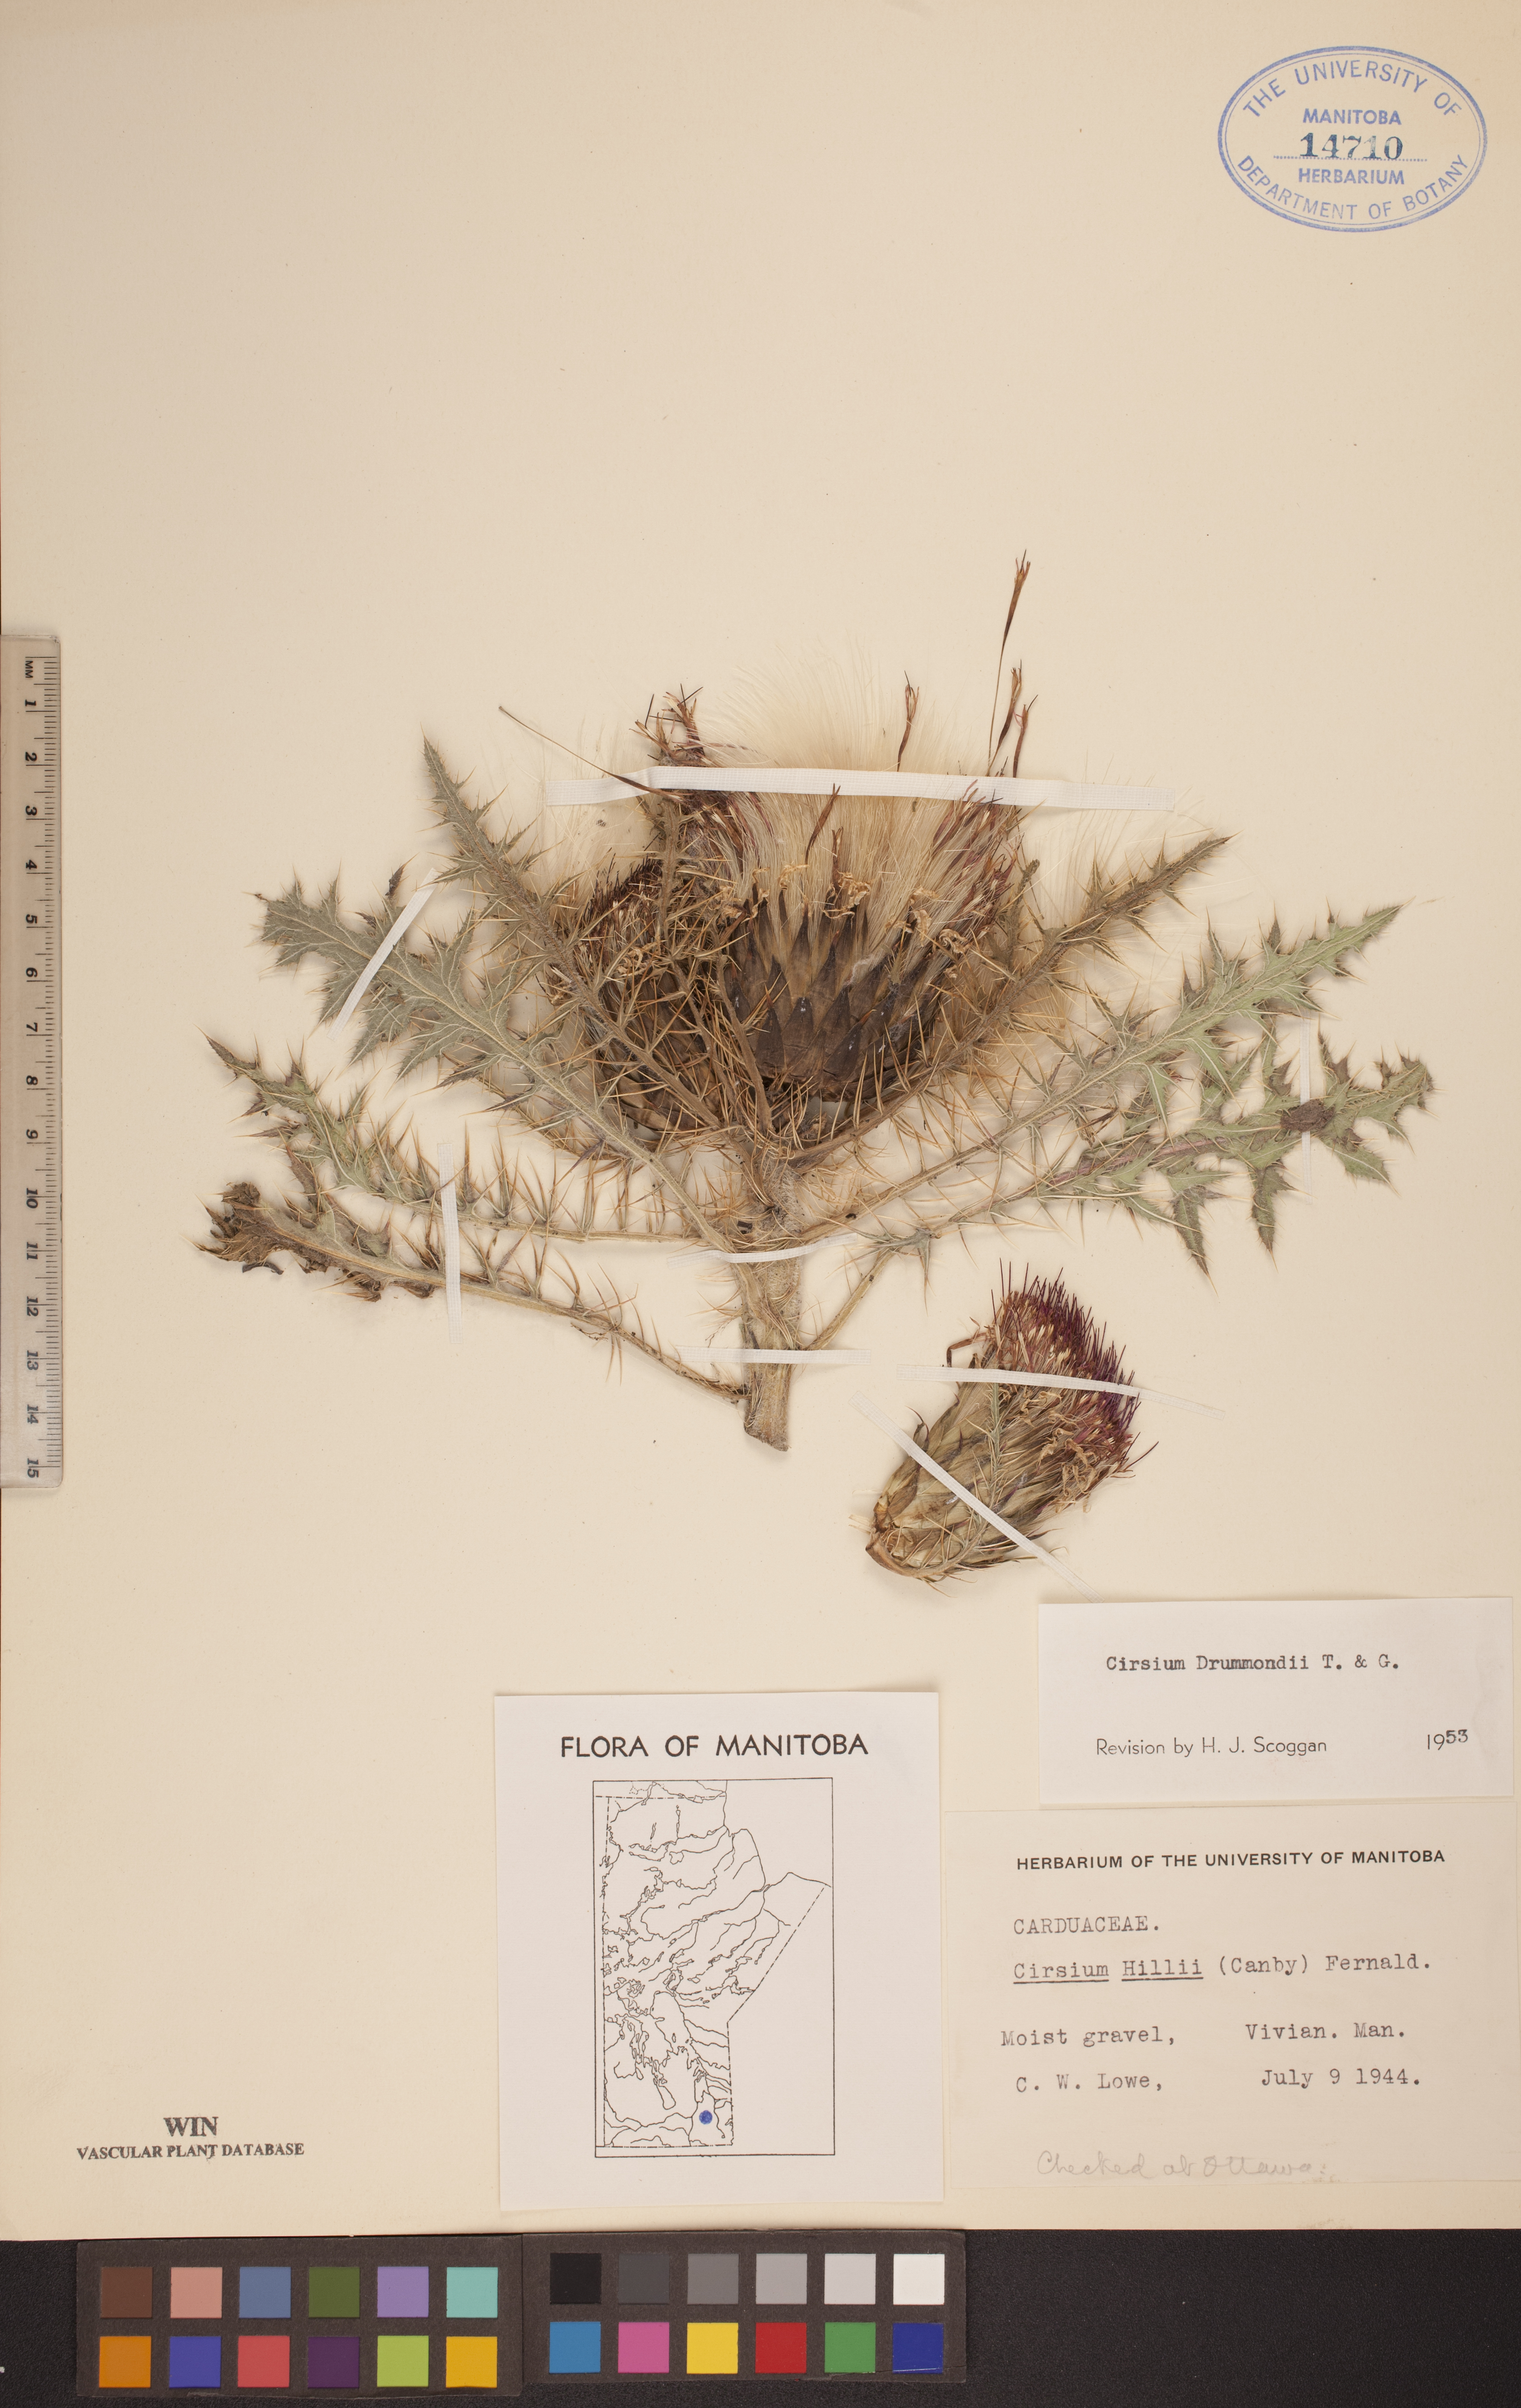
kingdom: Plantae
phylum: Tracheophyta
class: Magnoliopsida
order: Asterales
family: Asteraceae
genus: Cirsium
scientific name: Cirsium drummondii
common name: Drummond's thistle
